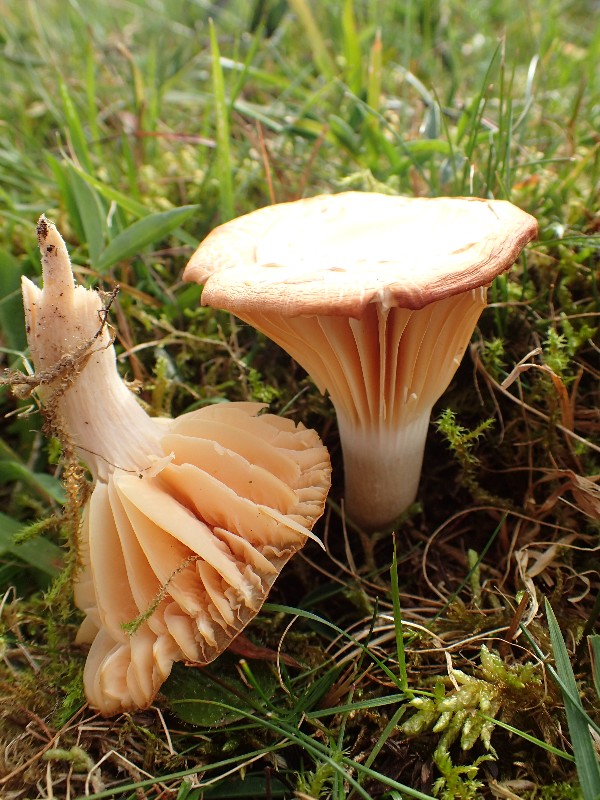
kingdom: Fungi
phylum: Basidiomycota
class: Agaricomycetes
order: Agaricales
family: Hygrophoraceae
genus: Cuphophyllus
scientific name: Cuphophyllus pratensis
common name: eng-vokshat
